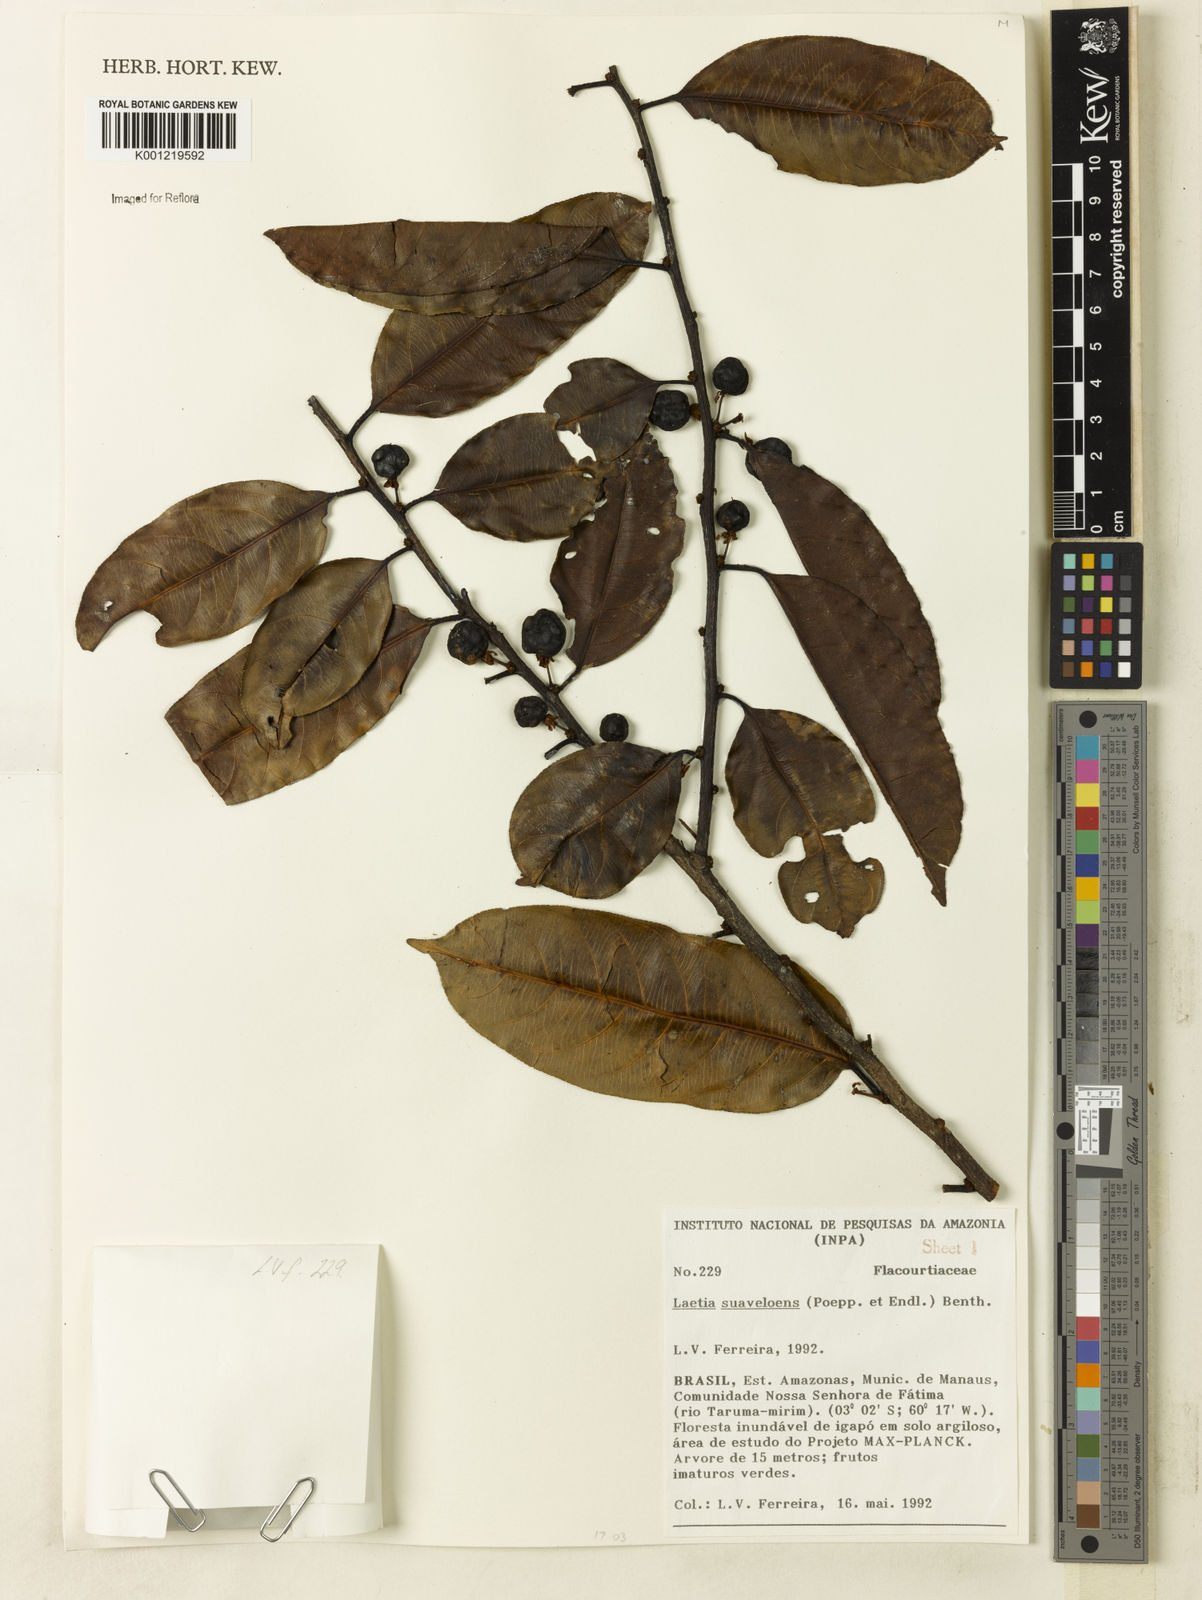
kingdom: Plantae
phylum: Tracheophyta
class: Magnoliopsida
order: Malpighiales
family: Salicaceae
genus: Casearia
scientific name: Casearia suaveolens
